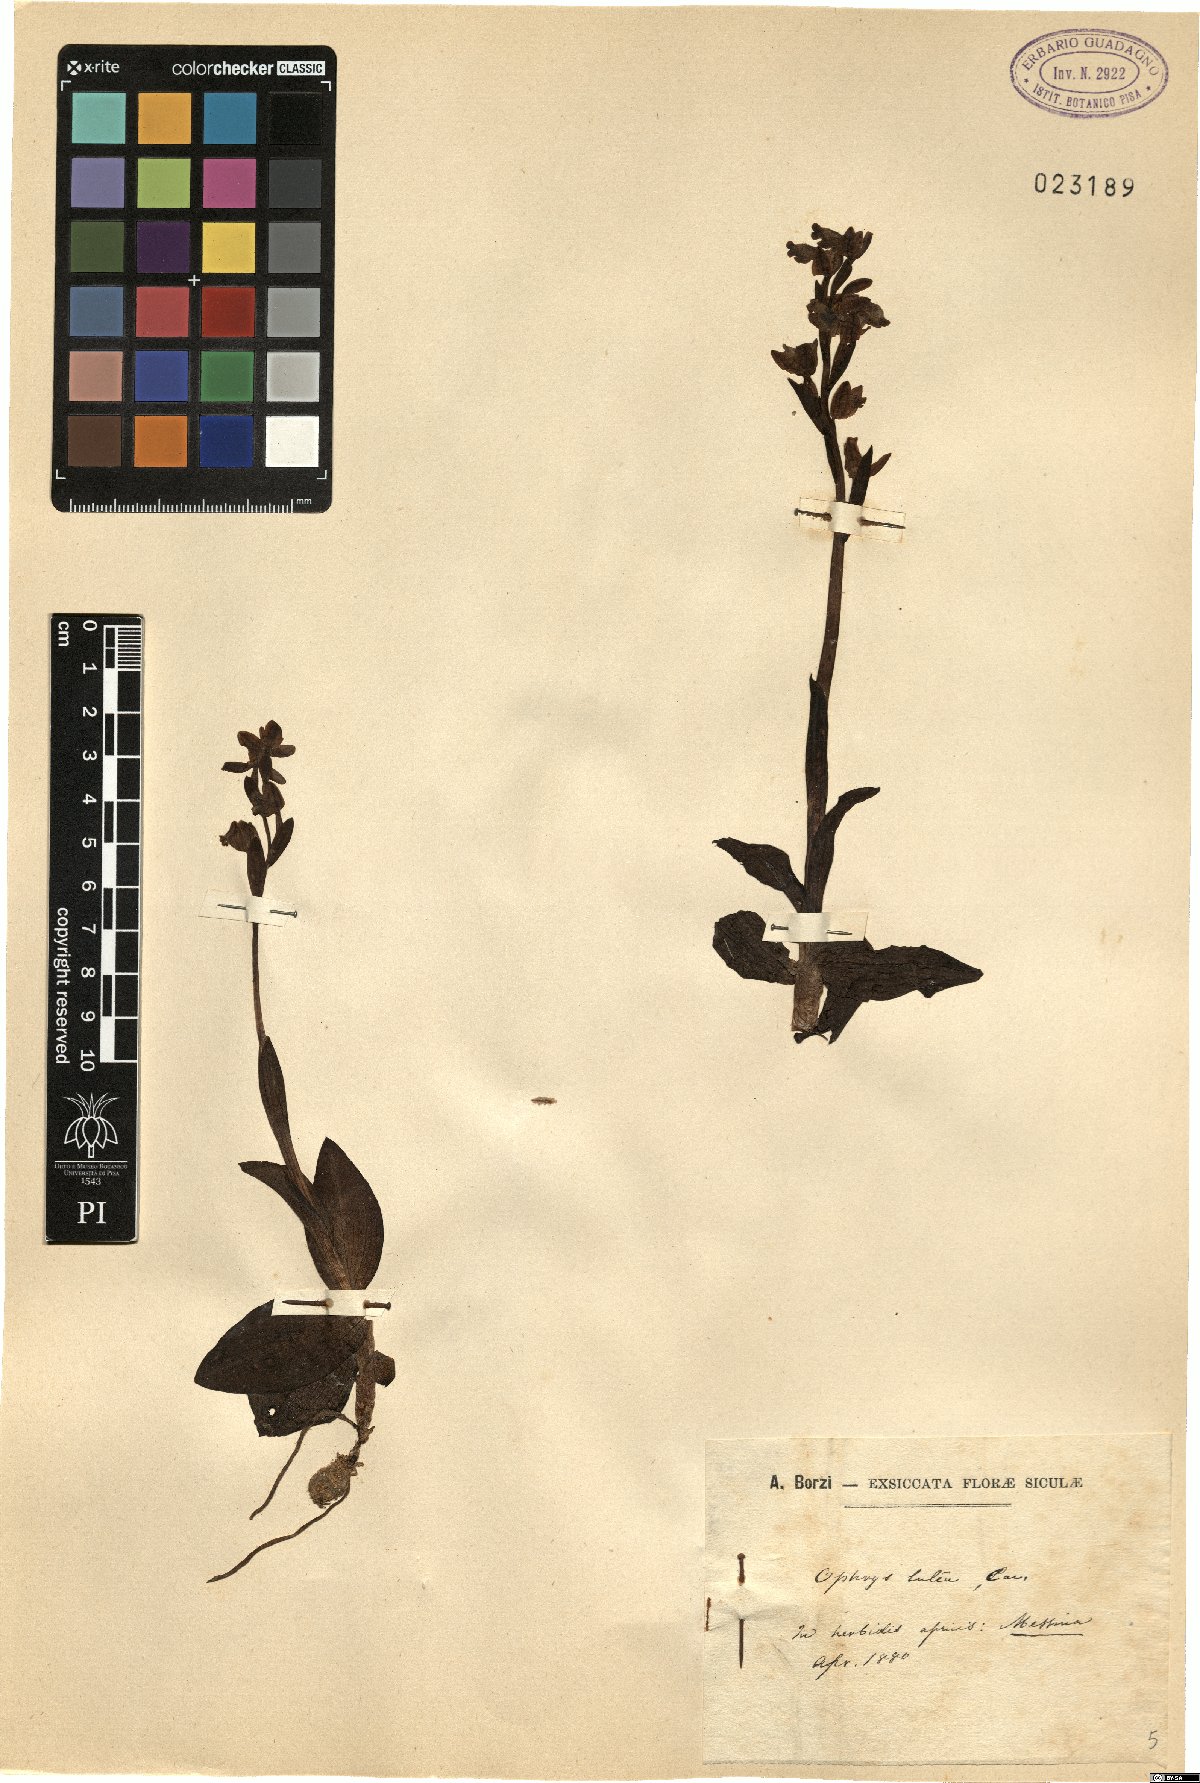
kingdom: Plantae
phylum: Tracheophyta
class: Liliopsida
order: Asparagales
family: Orchidaceae
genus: Ophrys
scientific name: Ophrys lutea
